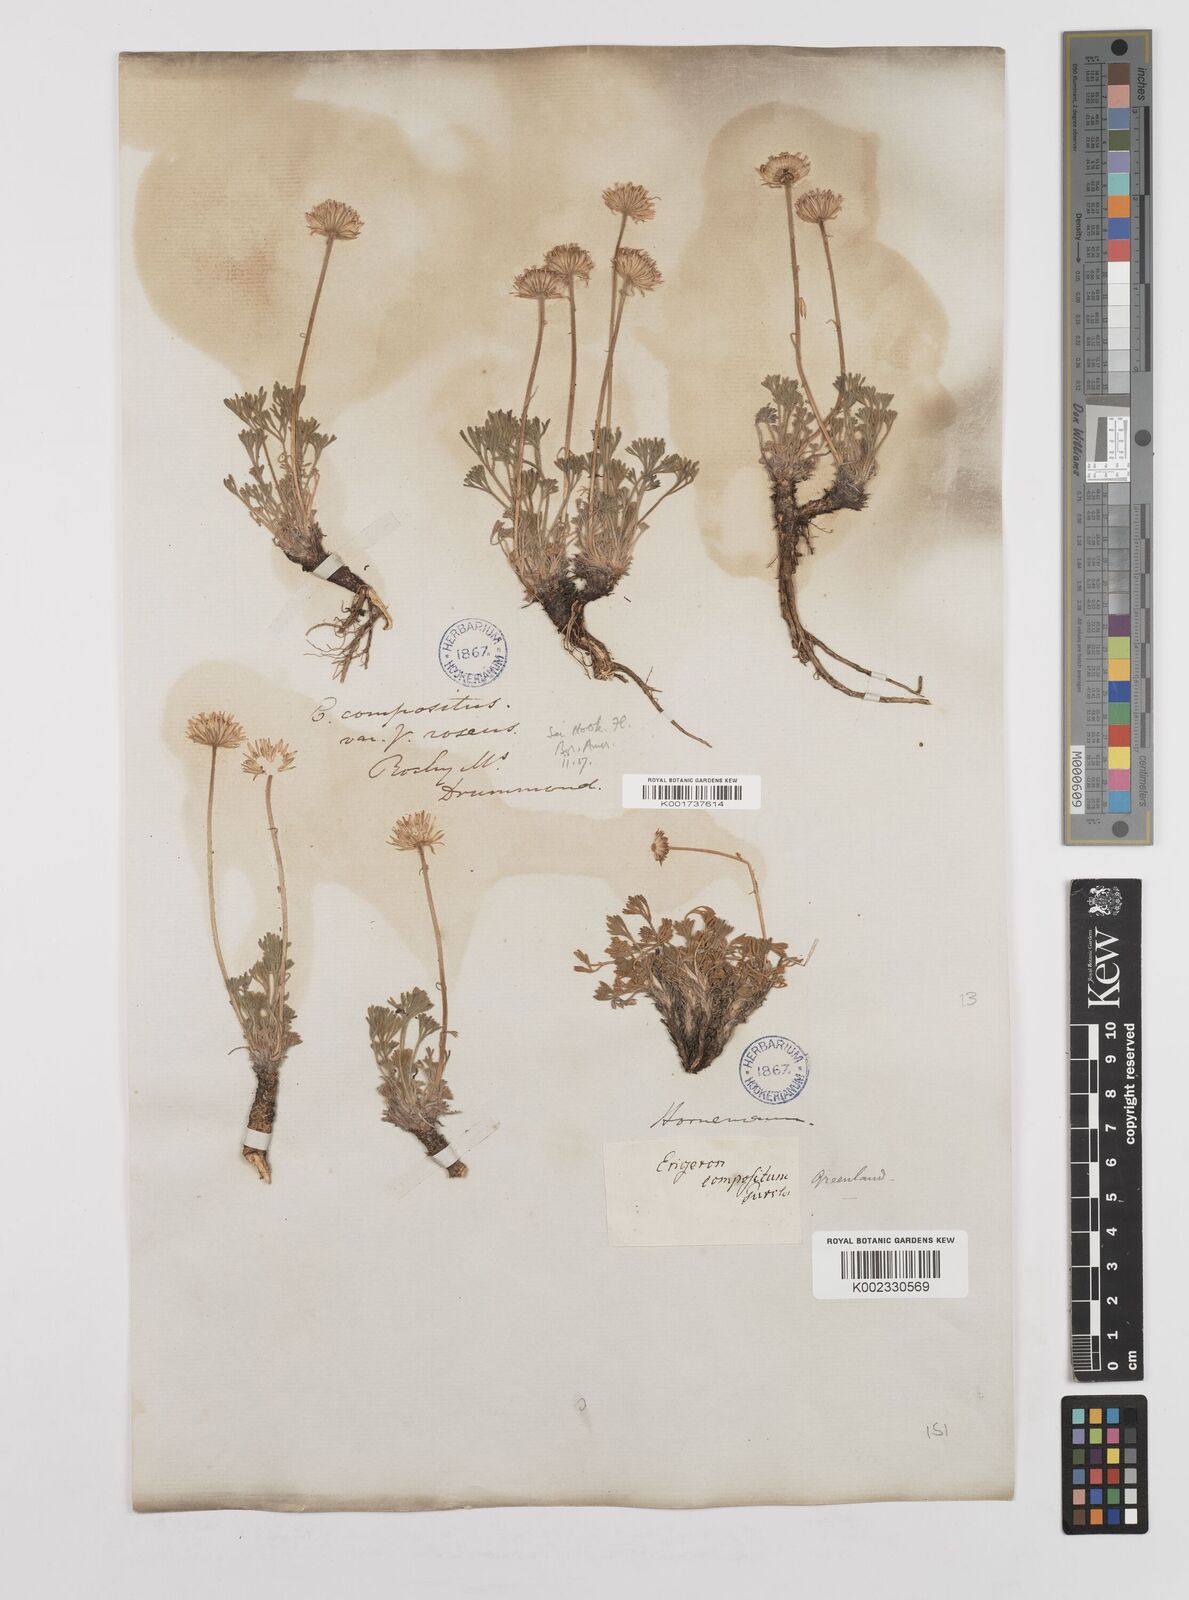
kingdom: Plantae
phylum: Tracheophyta
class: Magnoliopsida
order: Asterales
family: Asteraceae
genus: Erigeron
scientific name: Erigeron compositus
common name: Dwarf mountain fleabane
